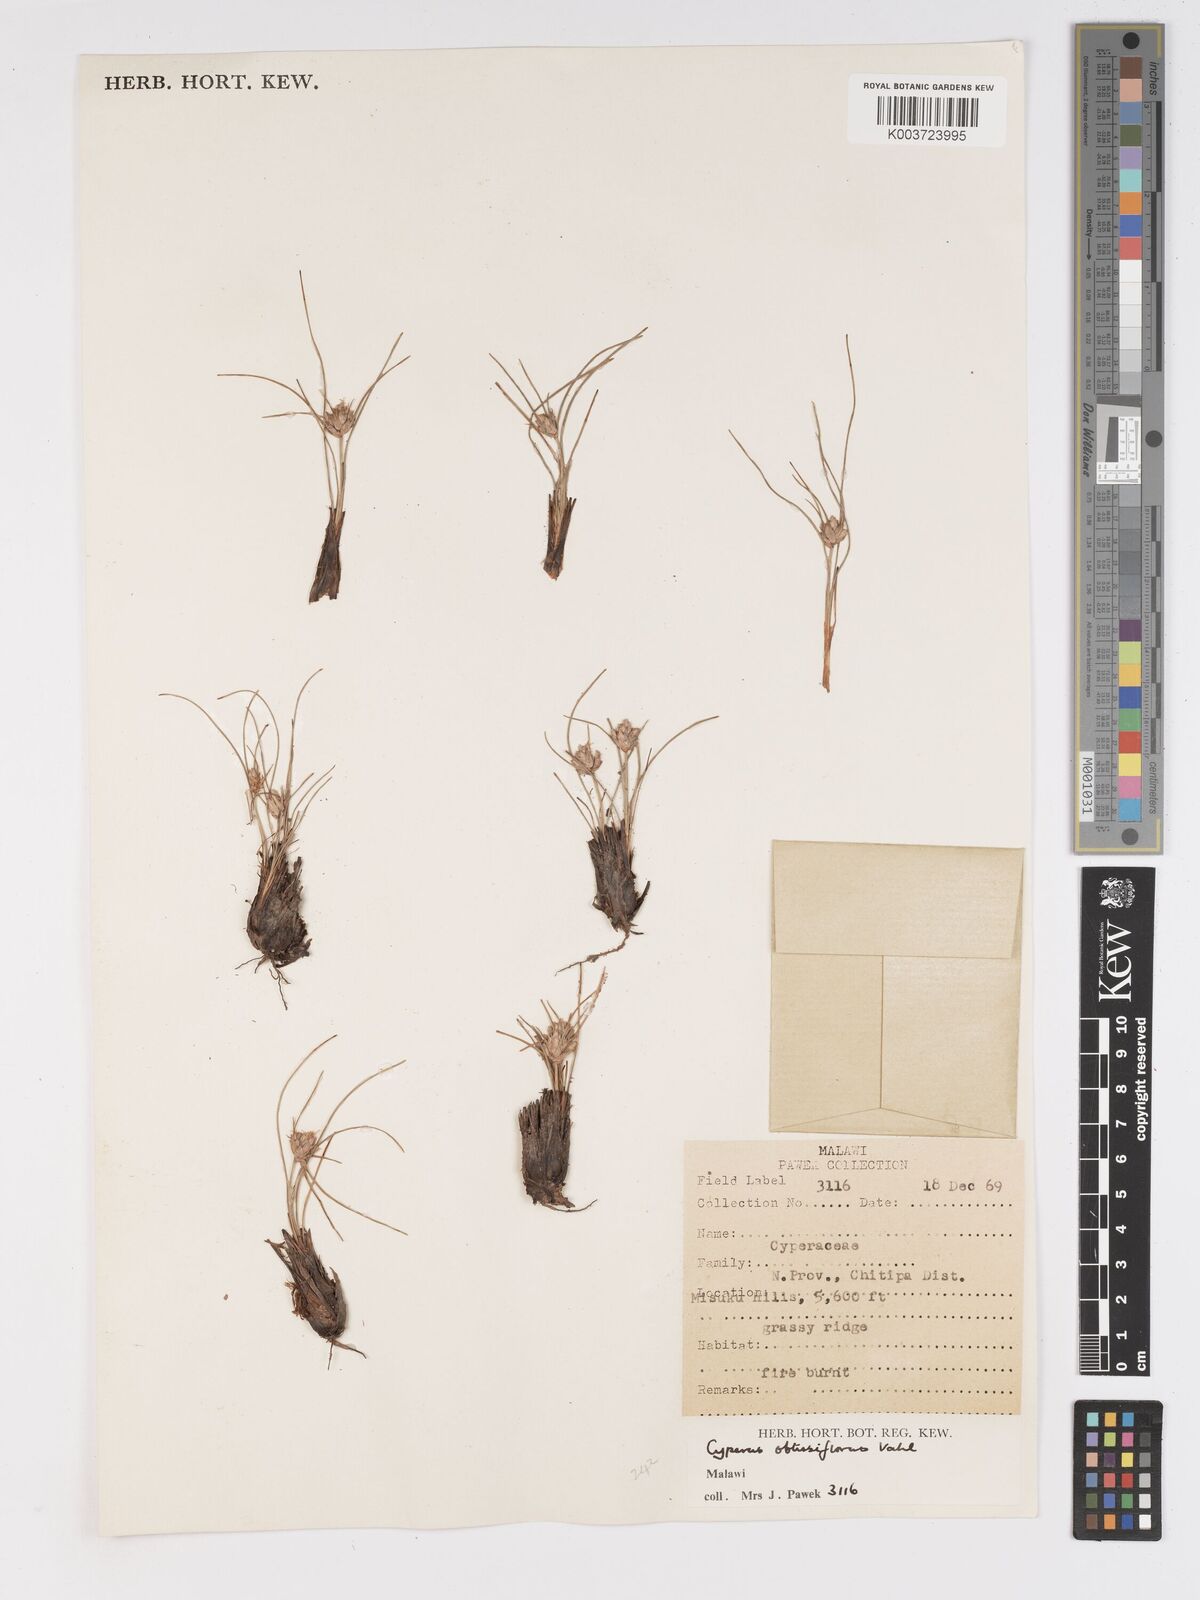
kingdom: Plantae
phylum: Tracheophyta
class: Liliopsida
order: Poales
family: Cyperaceae
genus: Cyperus
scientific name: Cyperus niveus
